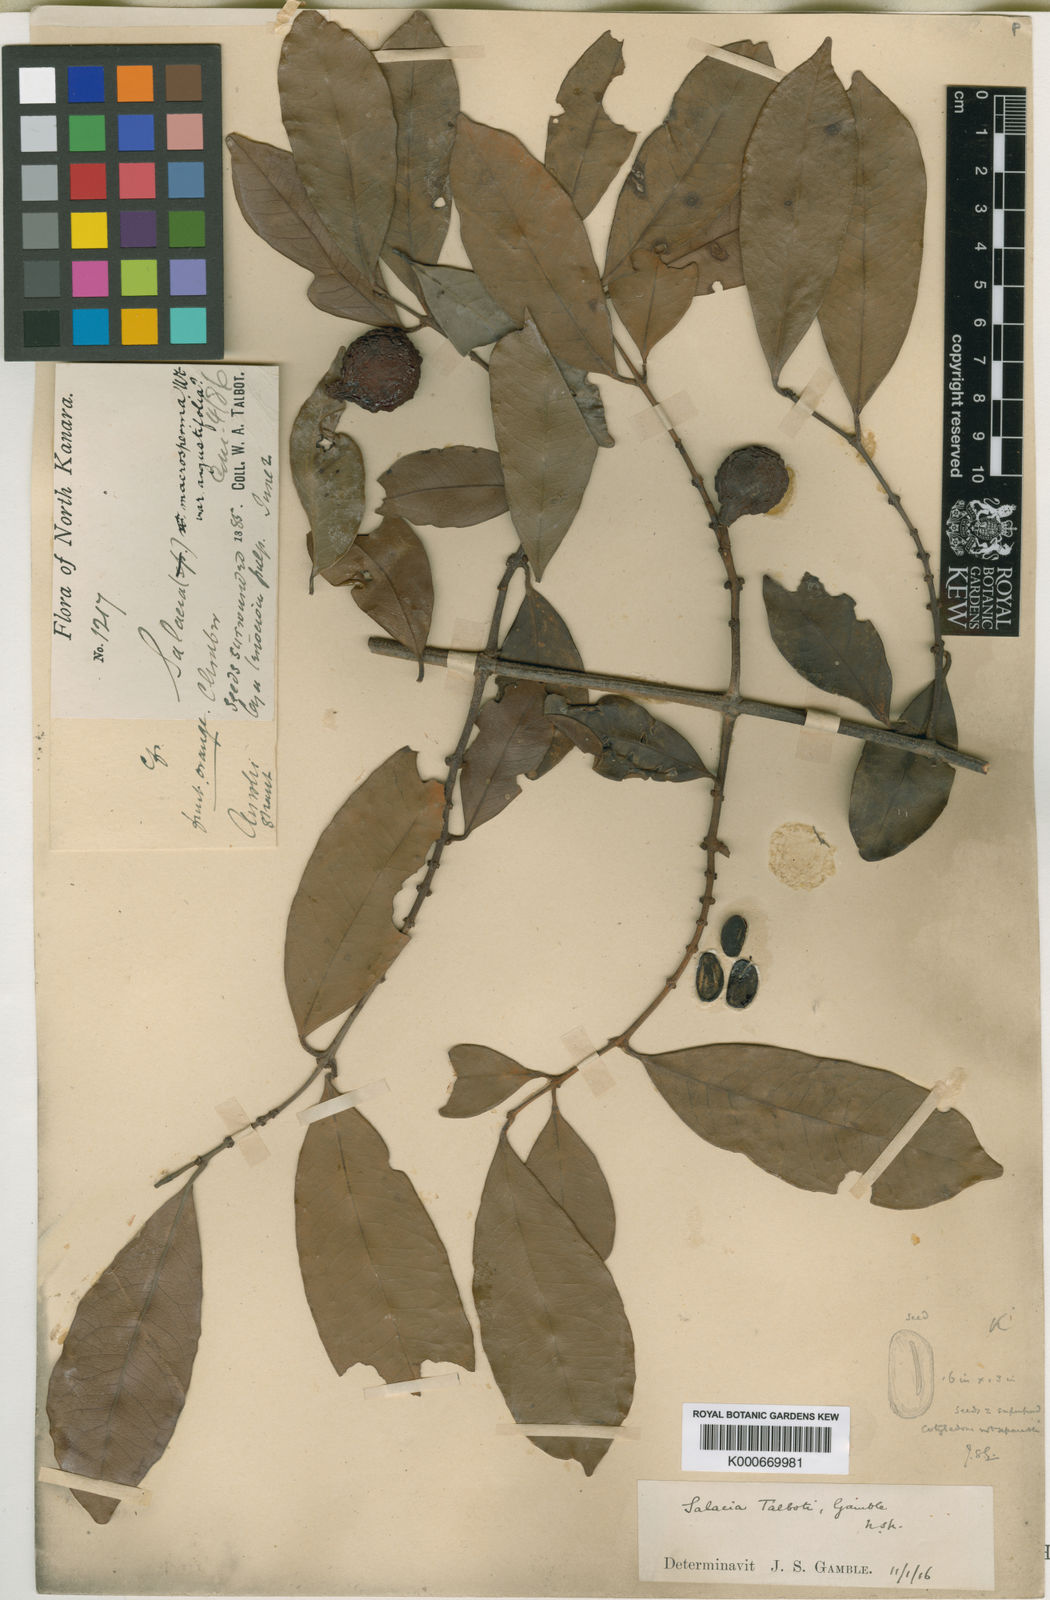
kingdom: Plantae
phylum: Tracheophyta
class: Magnoliopsida
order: Celastrales
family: Celastraceae
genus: Salacia
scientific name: Salacia gambleana
